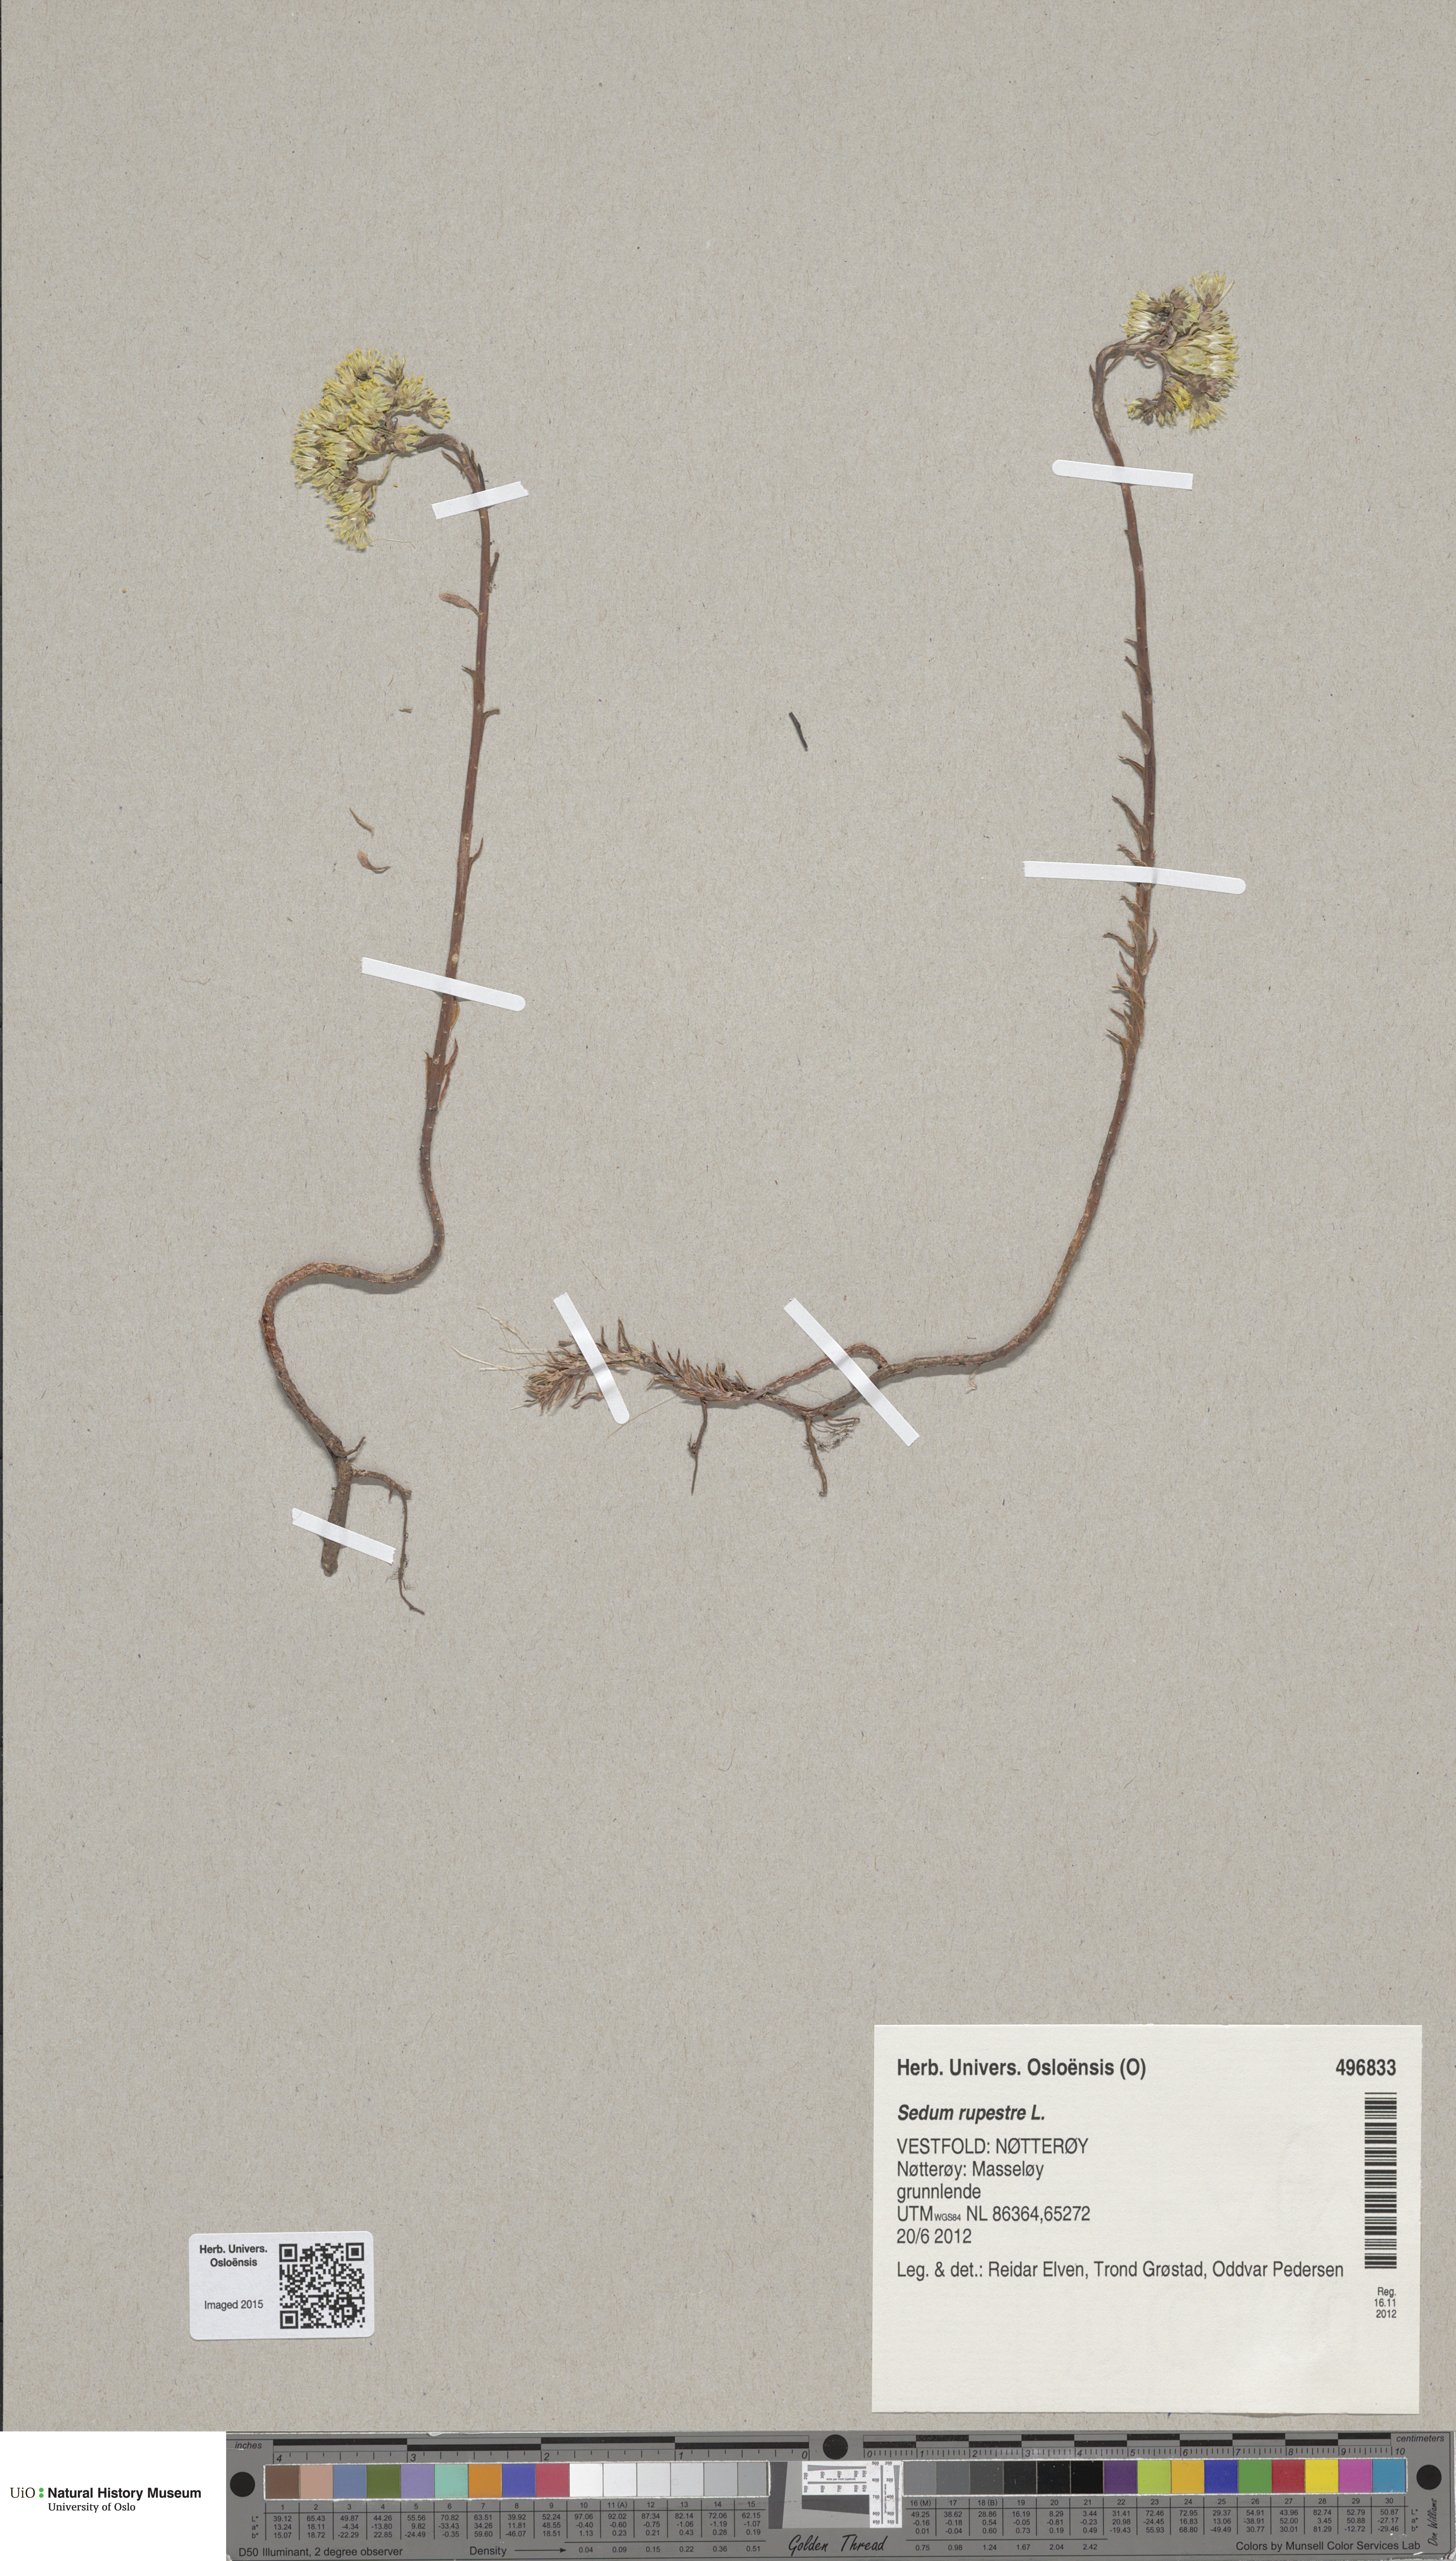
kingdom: Plantae
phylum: Tracheophyta
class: Magnoliopsida
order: Saxifragales
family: Crassulaceae
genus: Petrosedum
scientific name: Petrosedum rupestre
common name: Jenny's stonecrop
